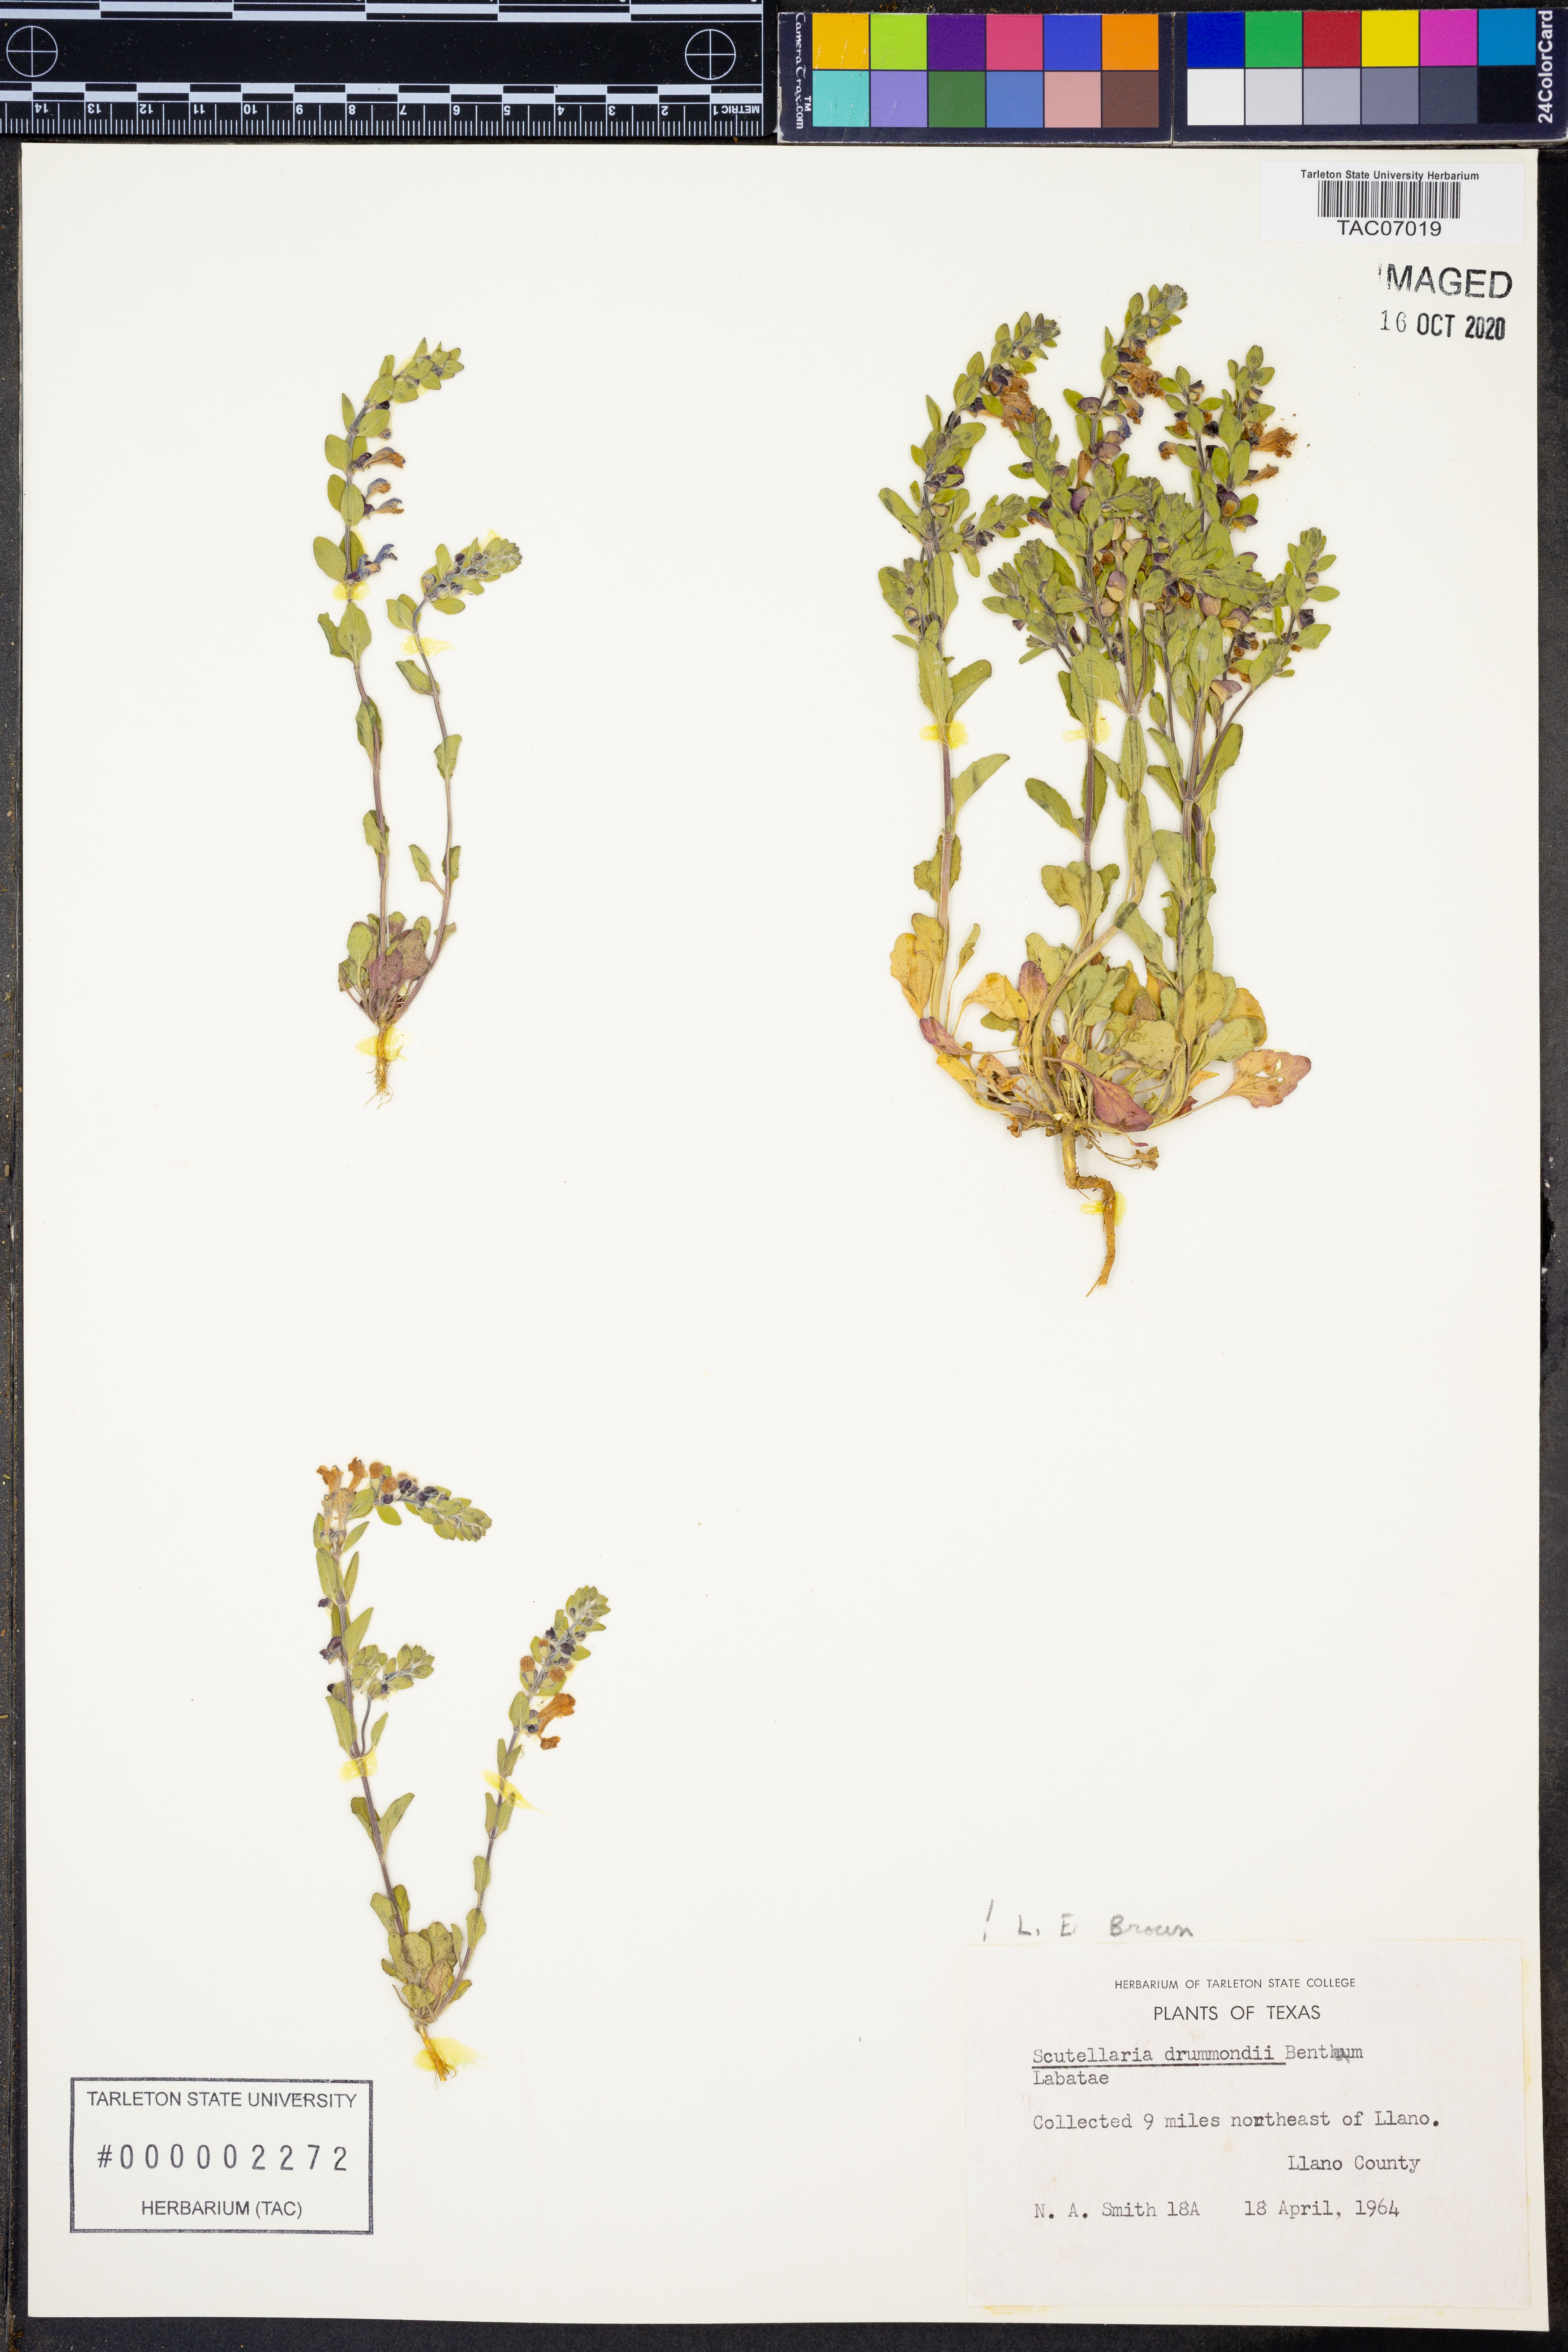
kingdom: Plantae
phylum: Tracheophyta
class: Magnoliopsida
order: Lamiales
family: Lamiaceae
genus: Scutellaria
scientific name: Scutellaria drummondii
